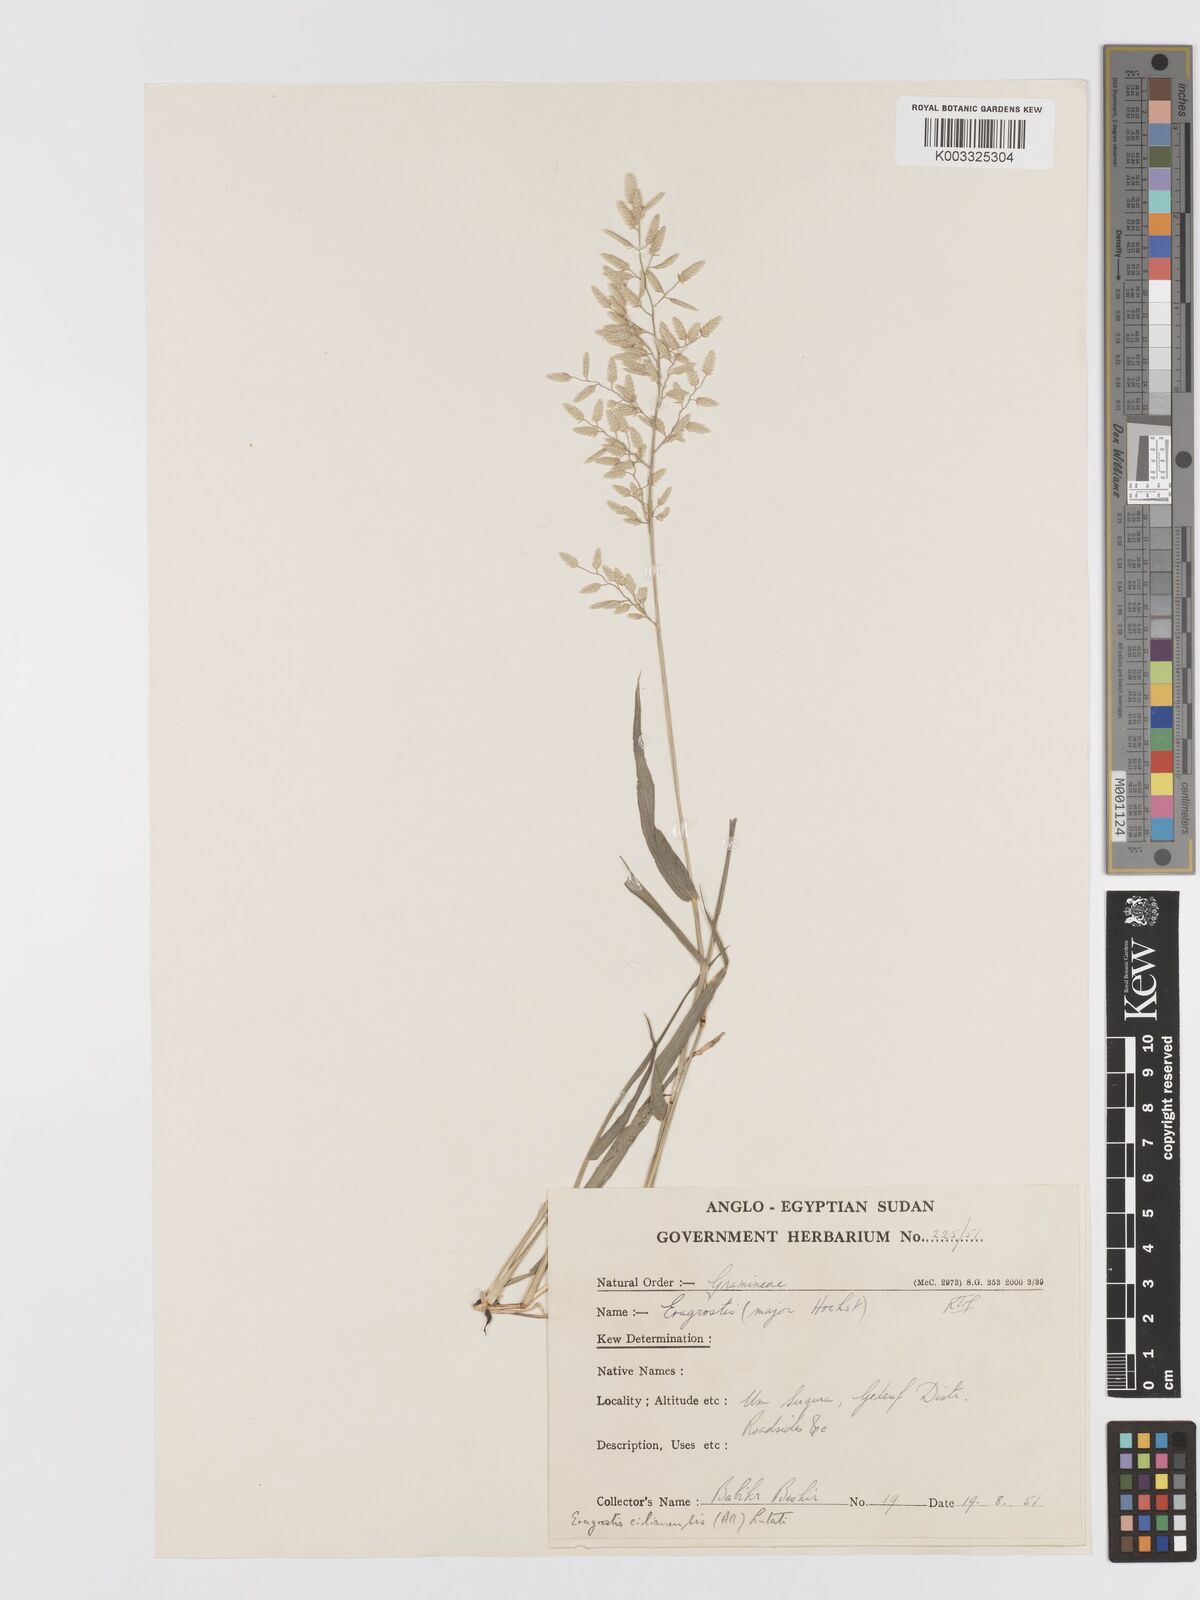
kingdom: Plantae
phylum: Tracheophyta
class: Liliopsida
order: Poales
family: Poaceae
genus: Eragrostis
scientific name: Eragrostis cilianensis
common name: Stinkgrass
